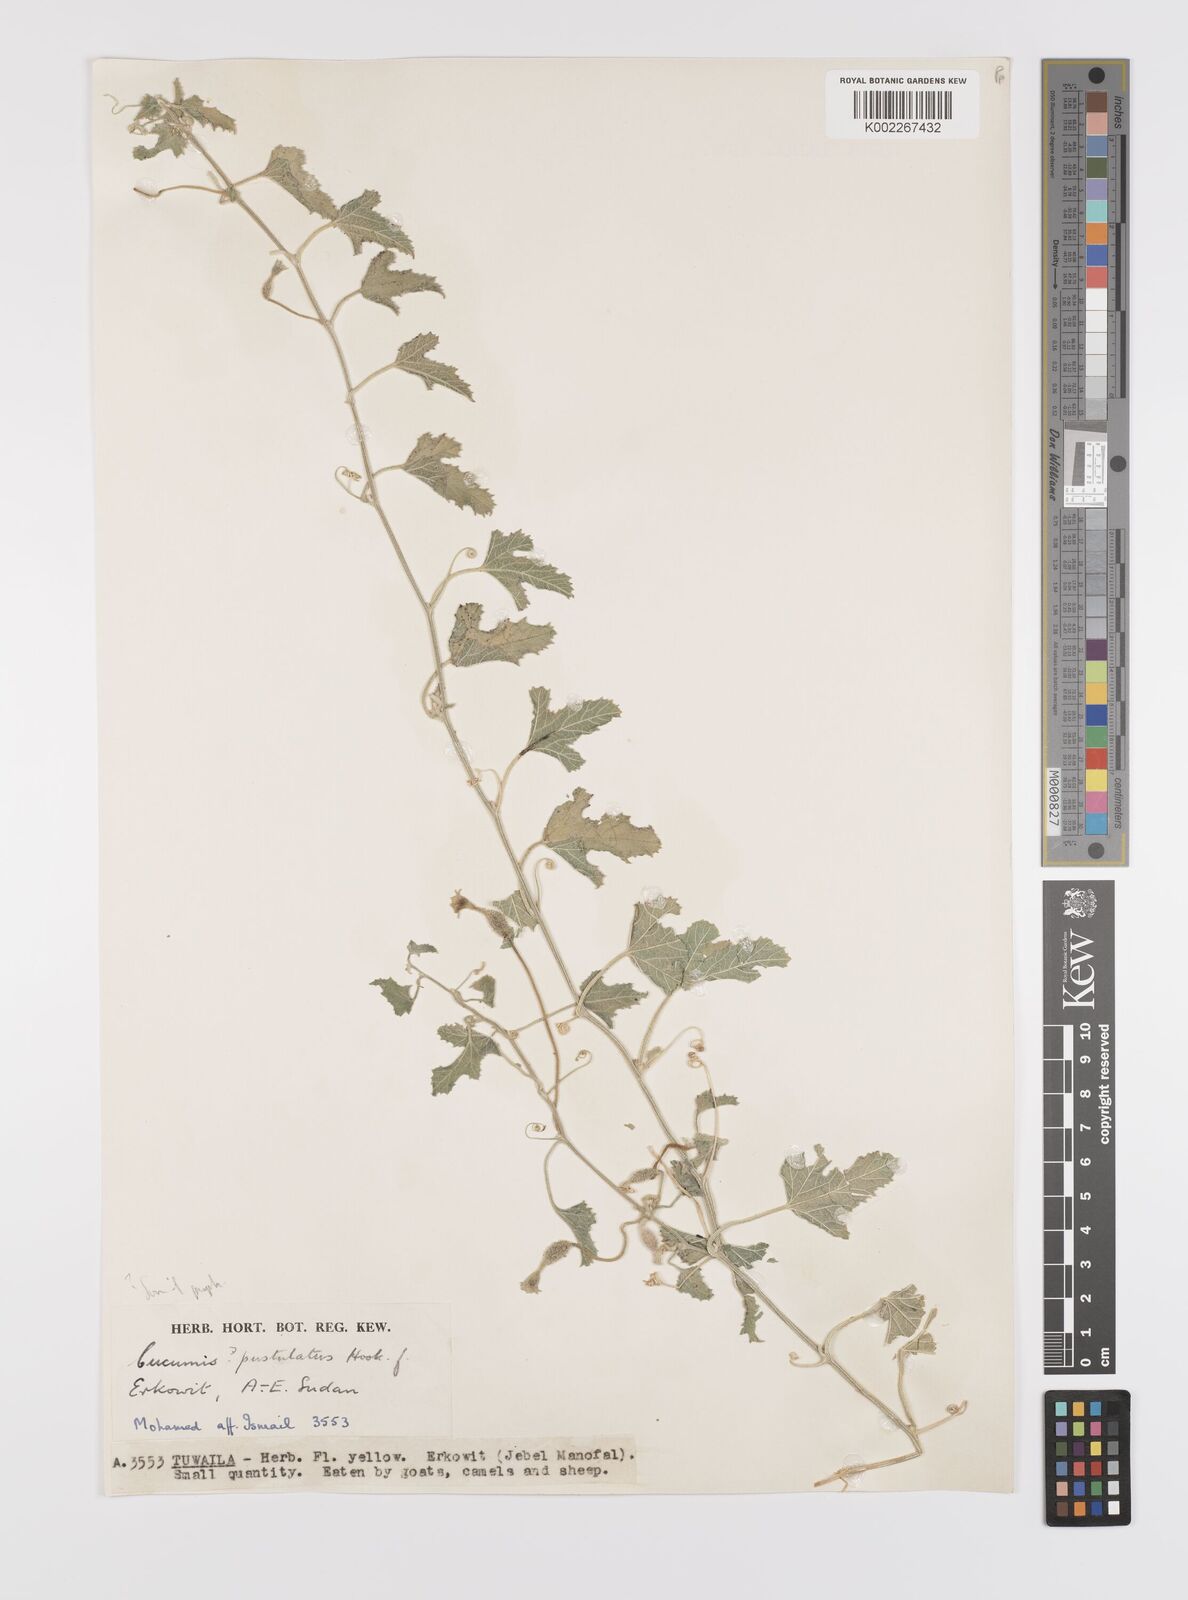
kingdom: Plantae
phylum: Tracheophyta
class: Magnoliopsida
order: Cucurbitales
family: Cucurbitaceae
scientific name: Cucurbitaceae
